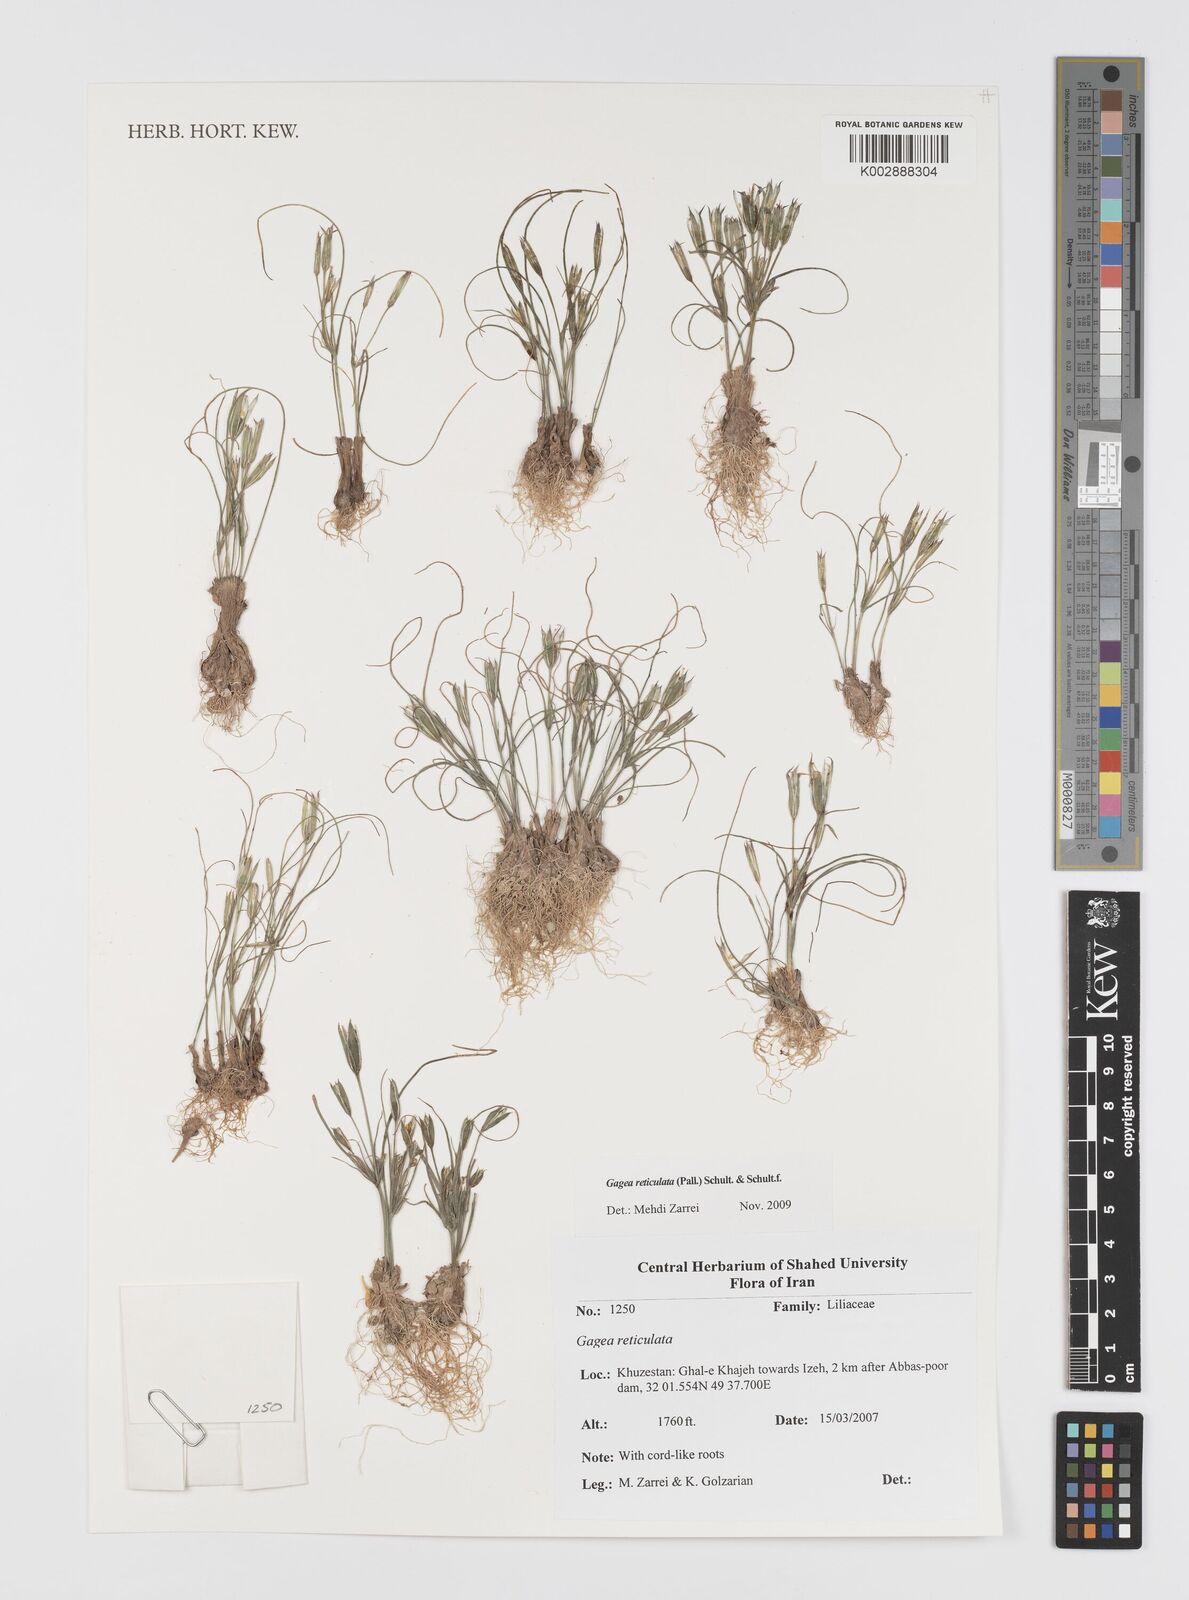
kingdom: Plantae
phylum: Tracheophyta
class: Liliopsida
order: Liliales
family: Liliaceae
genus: Gagea
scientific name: Gagea reticulata
